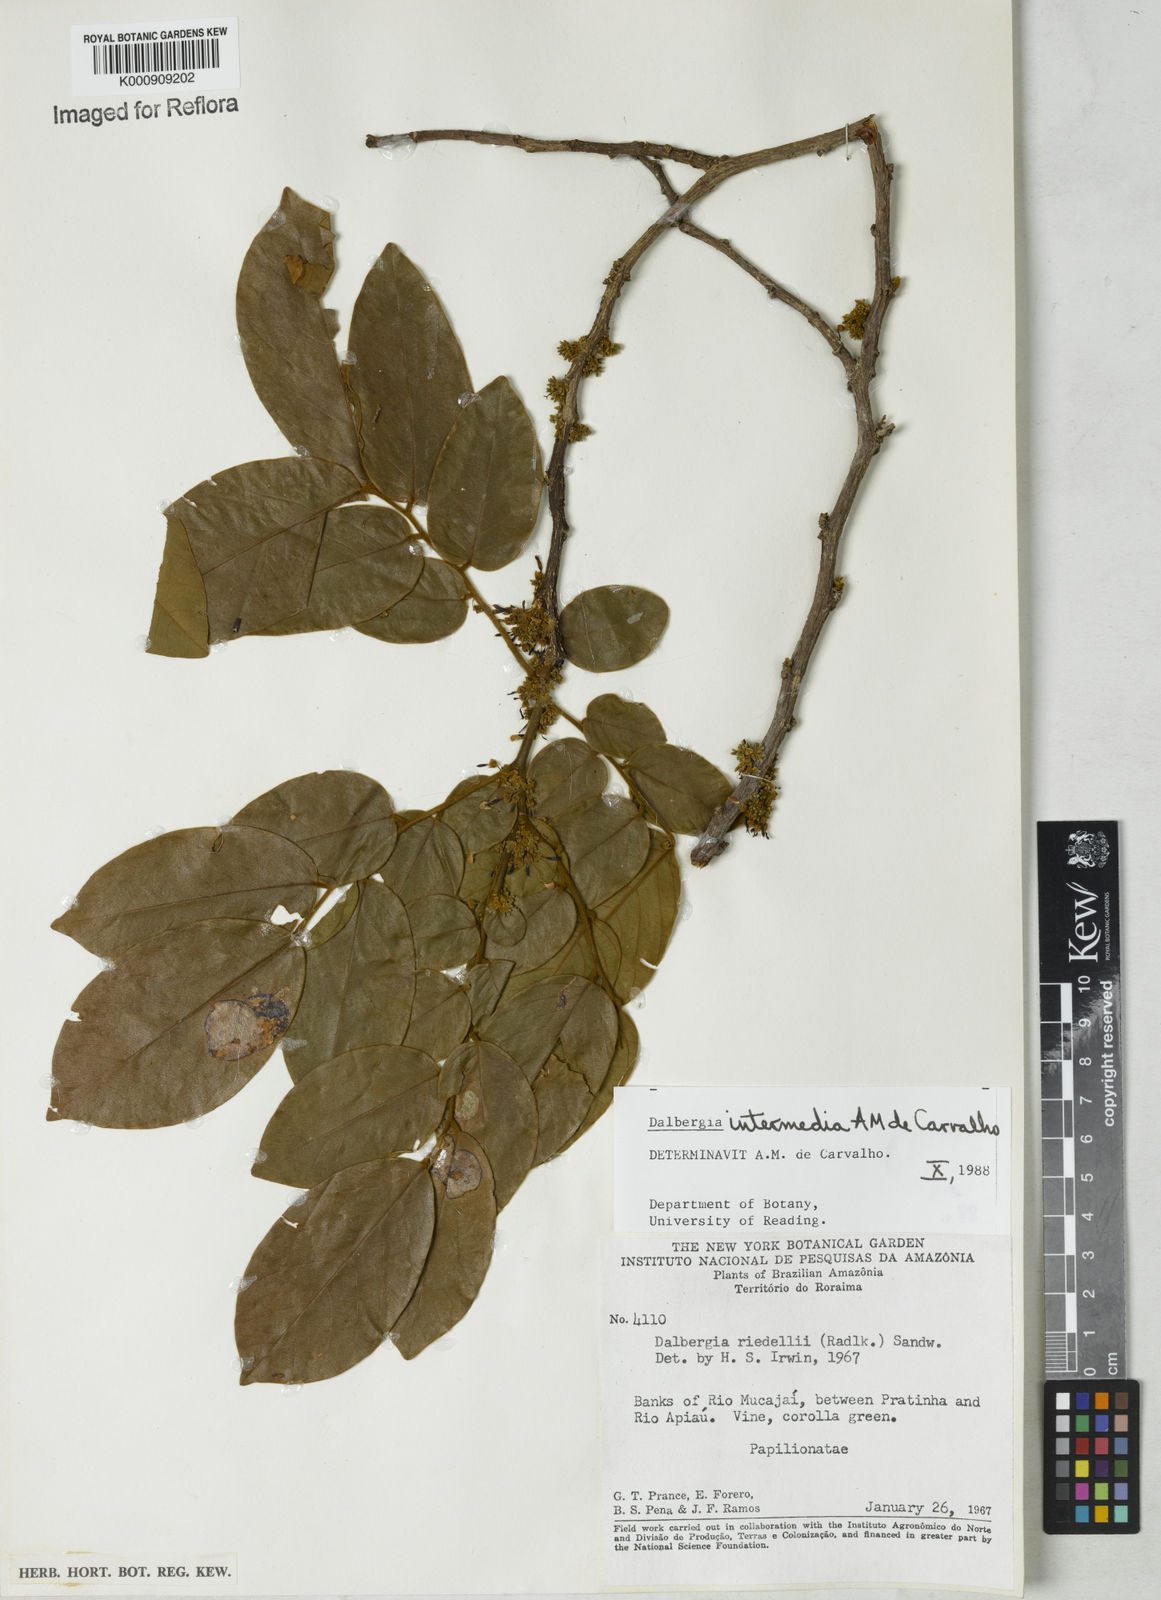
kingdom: Plantae
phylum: Tracheophyta
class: Magnoliopsida
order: Fabales
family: Fabaceae
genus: Dalbergia
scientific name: Dalbergia intermedia
